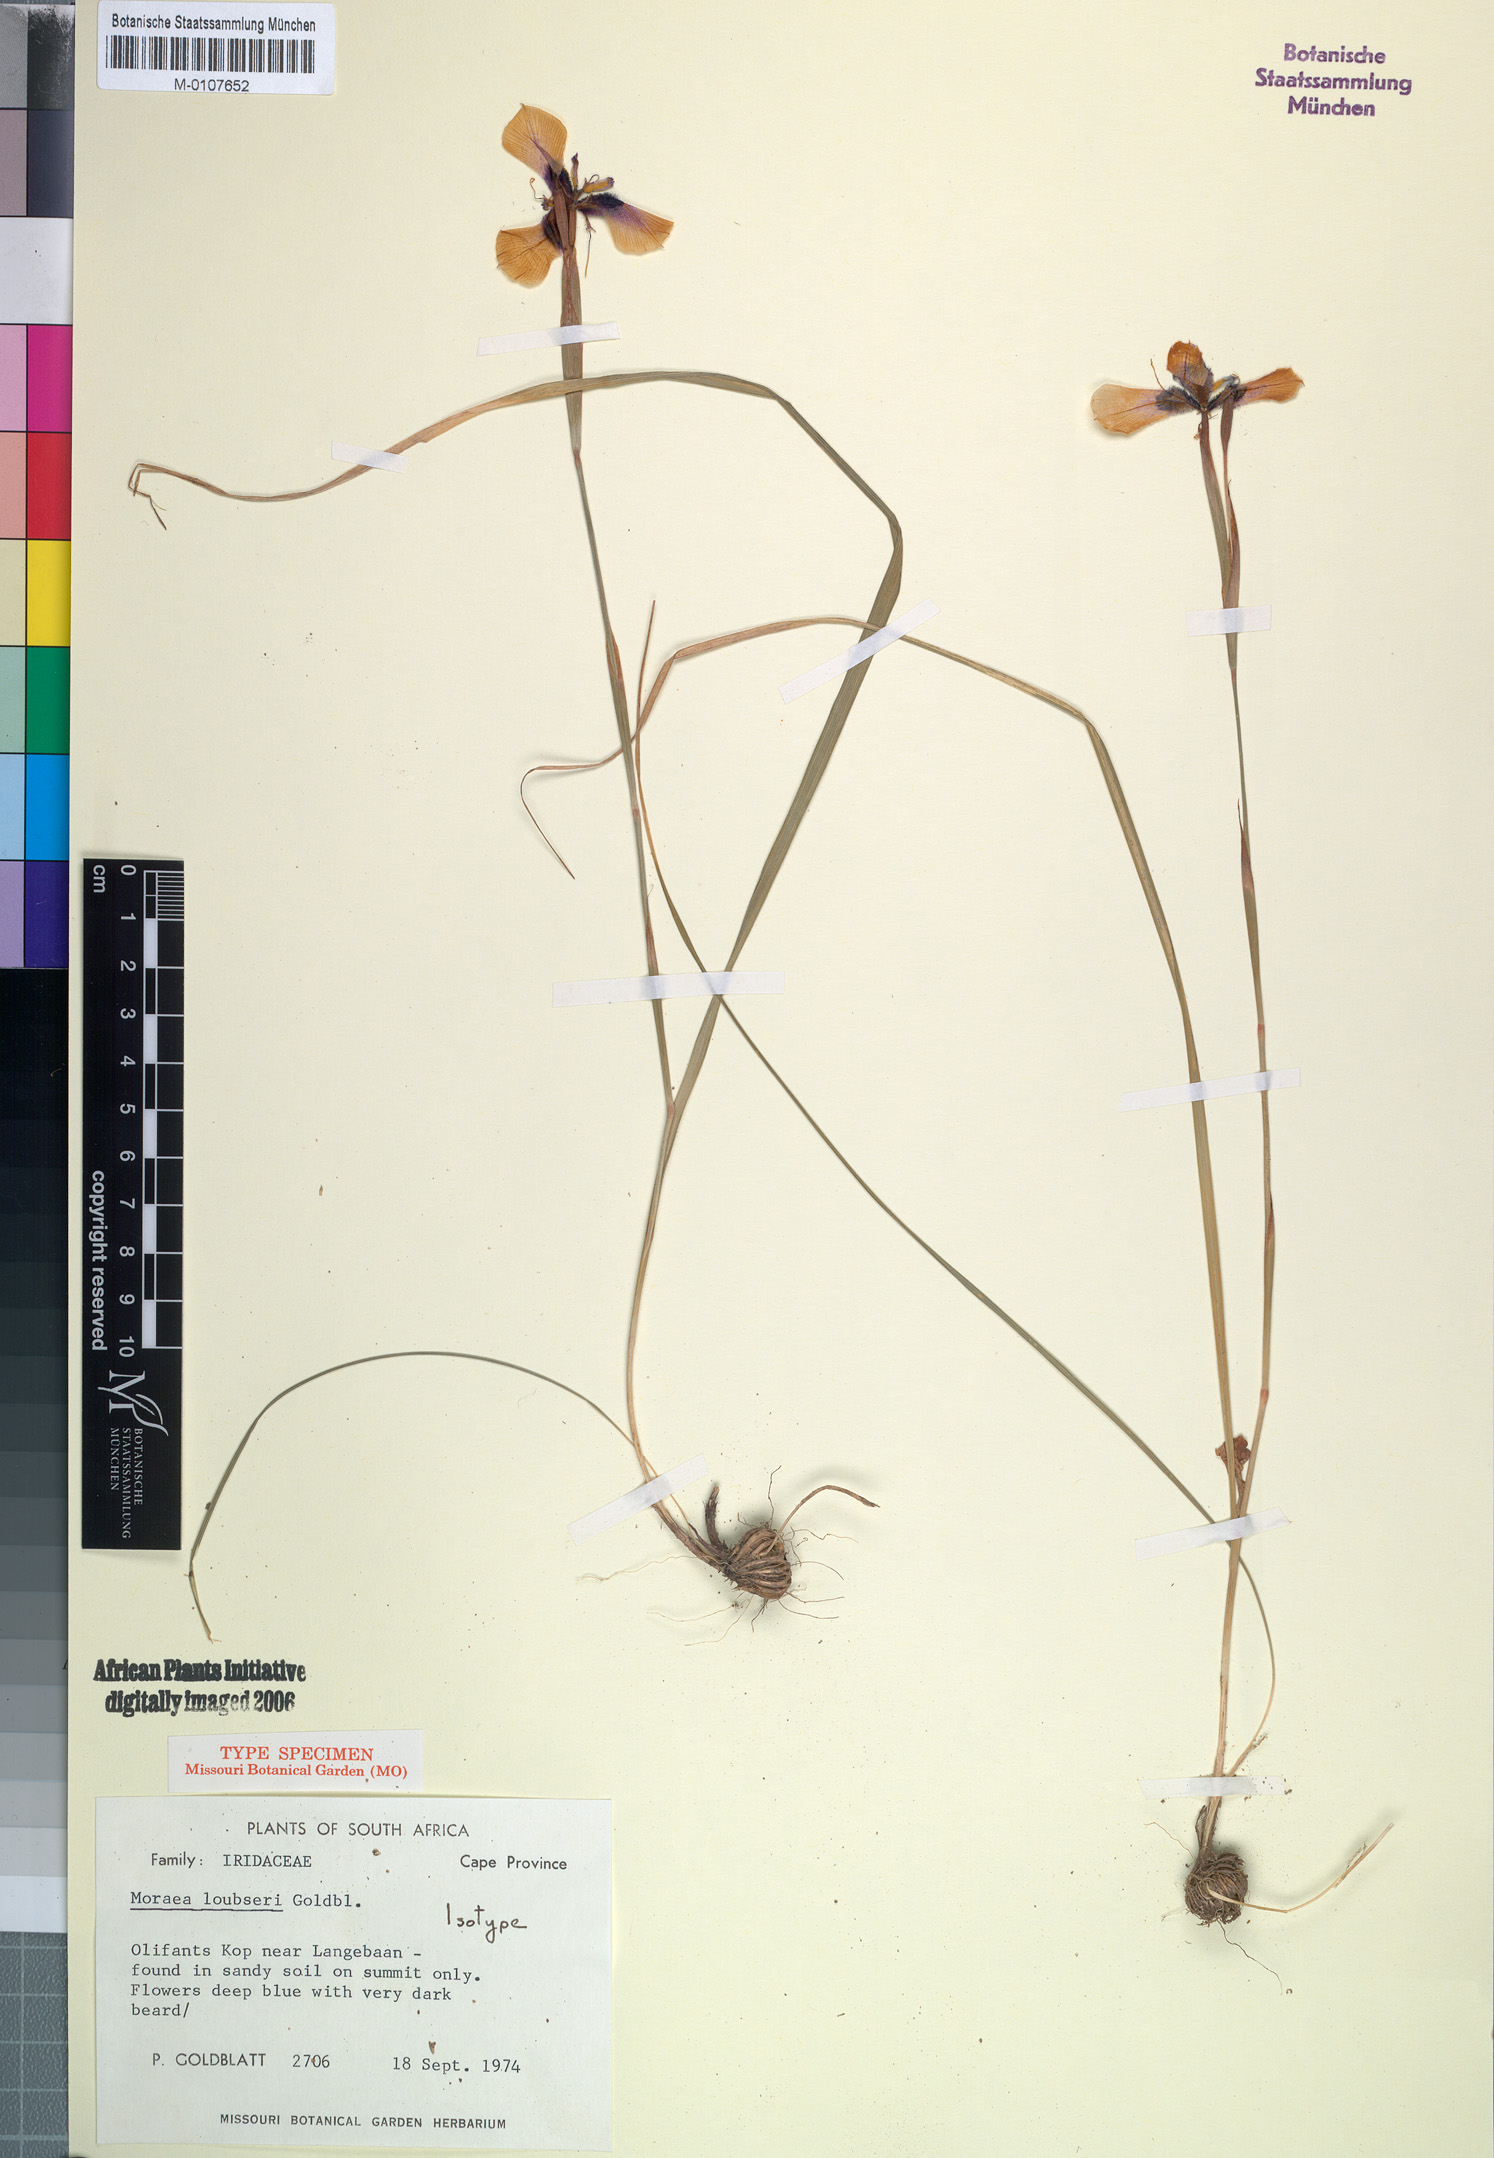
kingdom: Plantae
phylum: Tracheophyta
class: Liliopsida
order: Asparagales
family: Iridaceae
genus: Moraea
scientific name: Moraea loubseri
